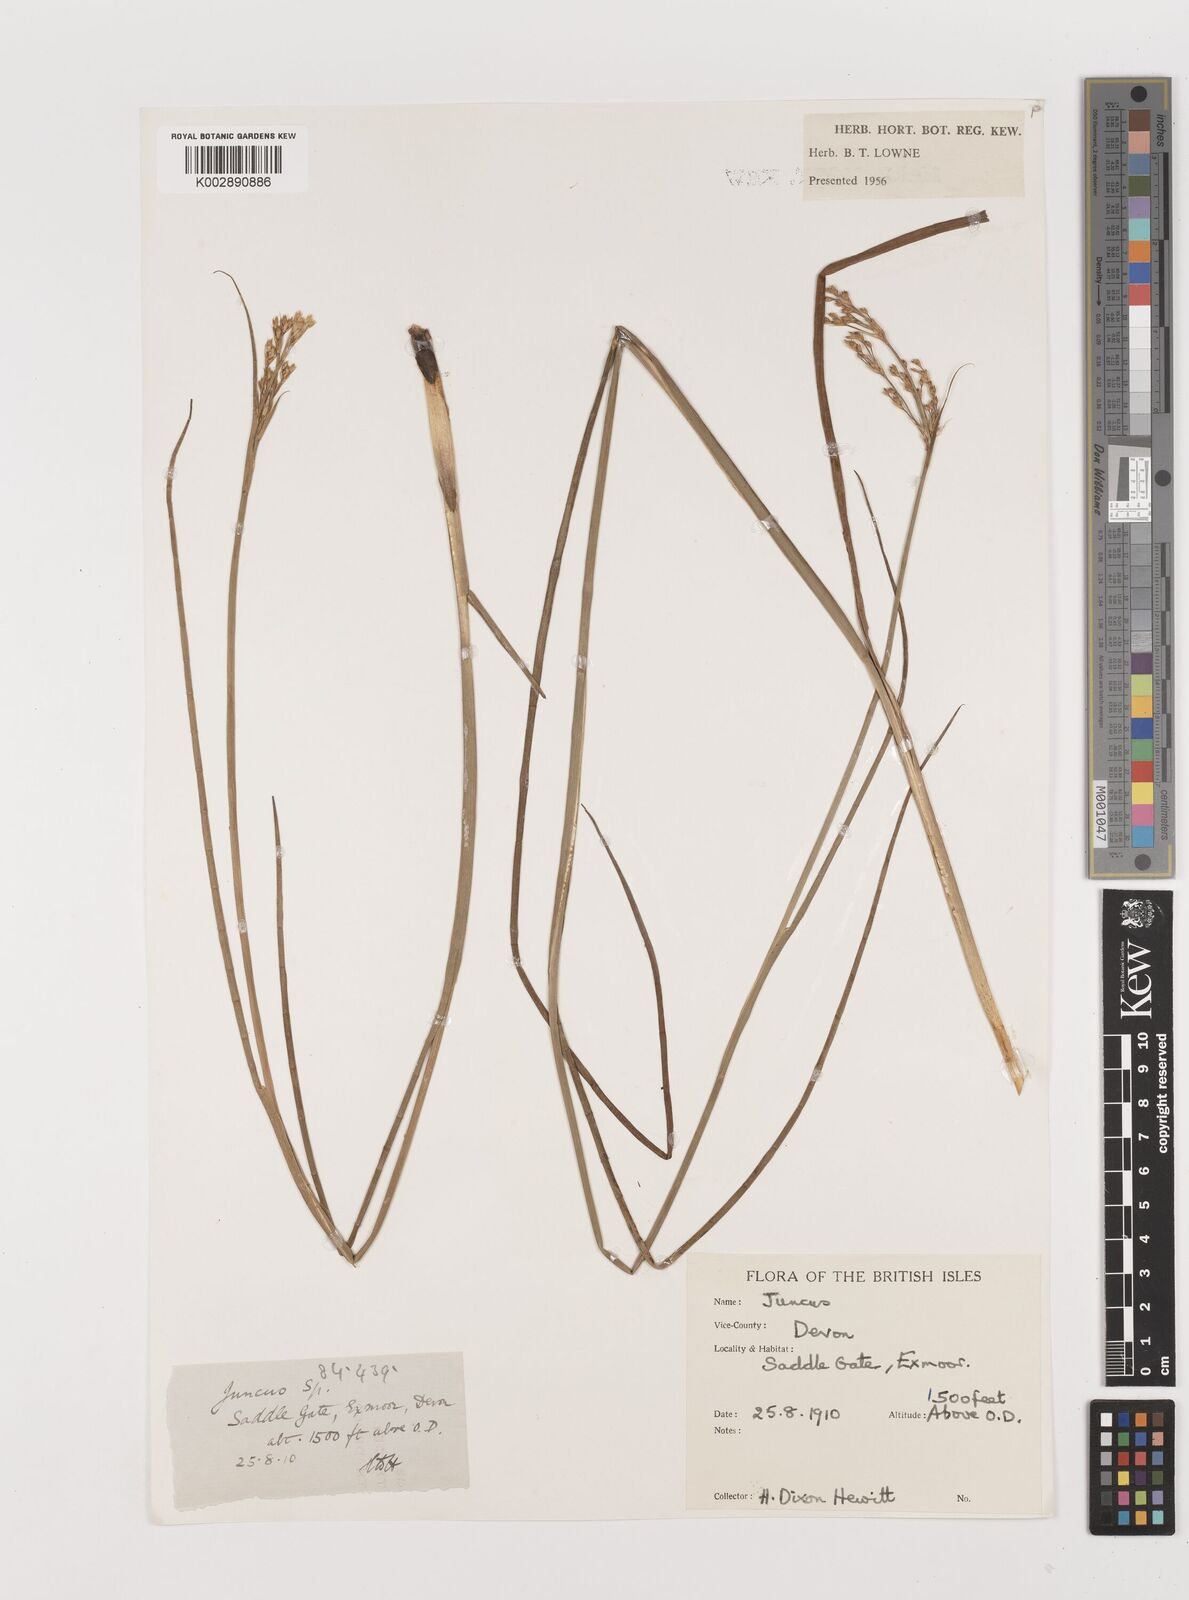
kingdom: Plantae
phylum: Tracheophyta
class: Liliopsida
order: Poales
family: Juncaceae
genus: Juncus
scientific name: Juncus
